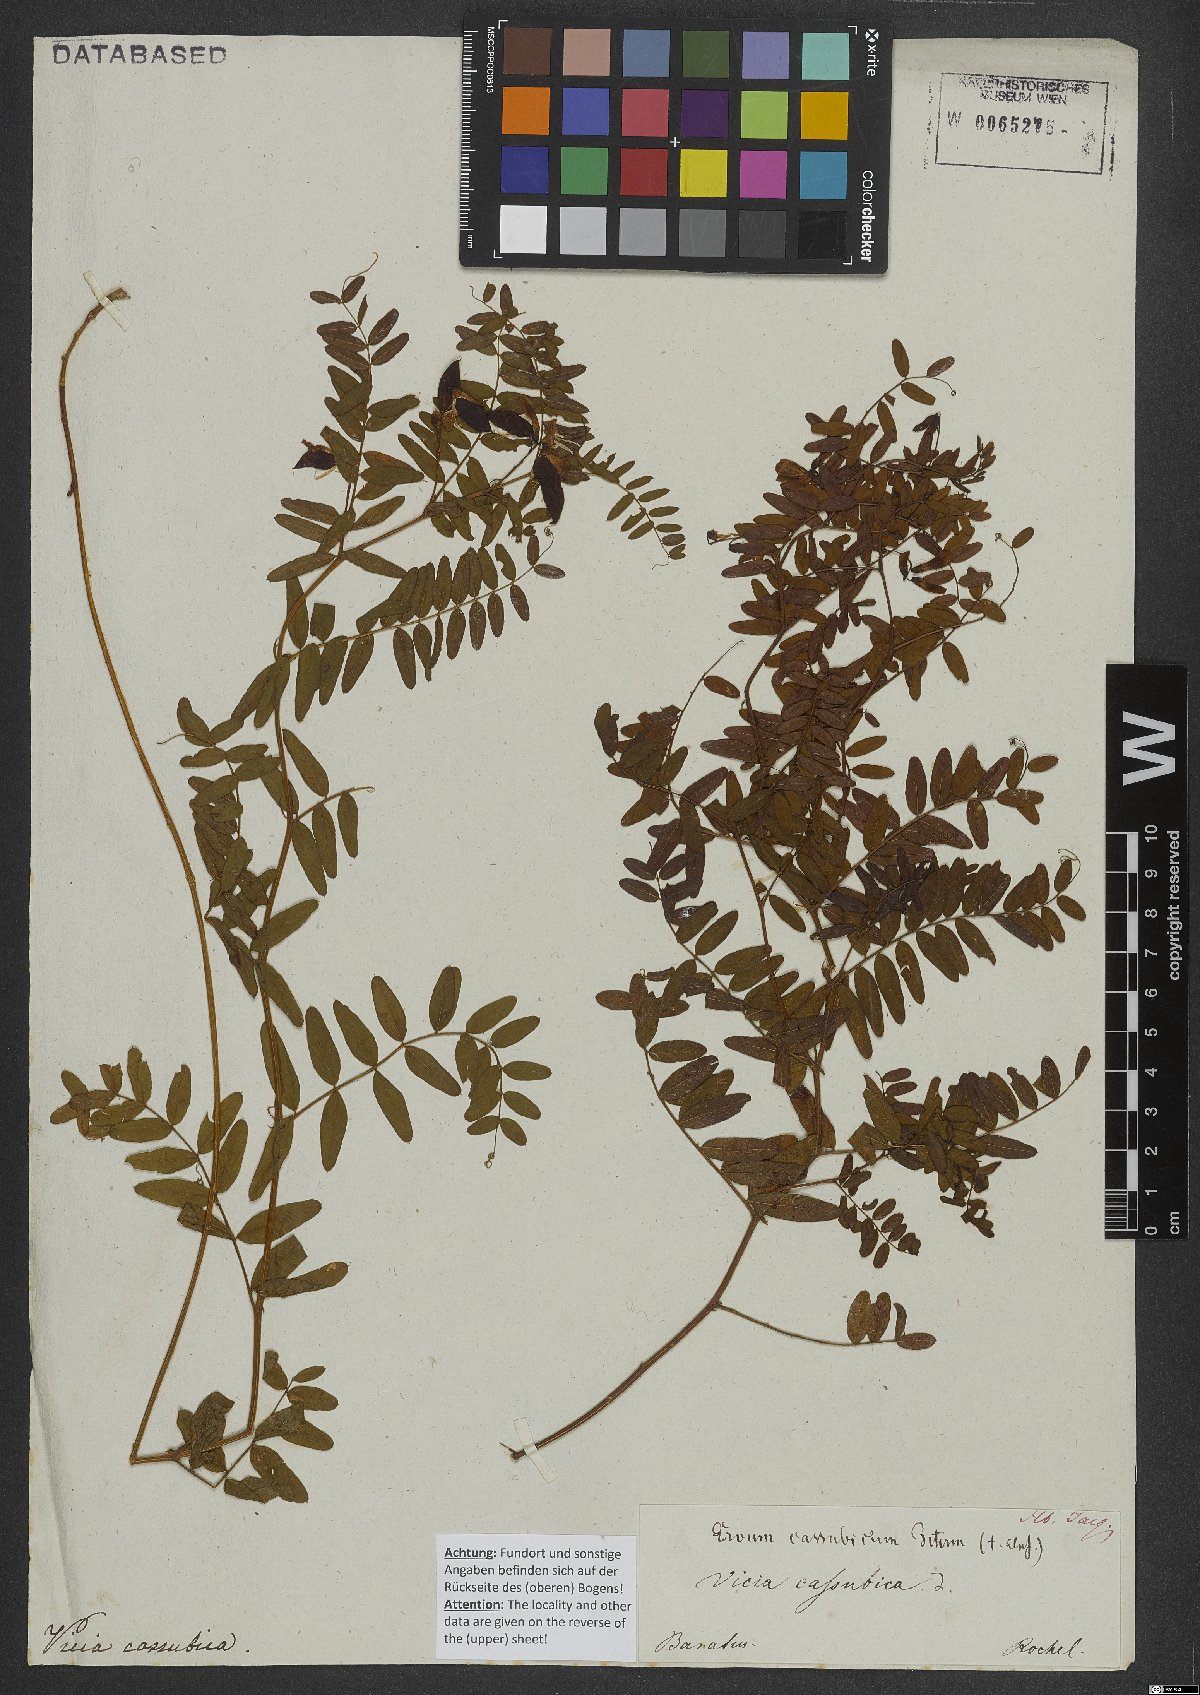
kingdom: Plantae
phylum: Tracheophyta
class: Magnoliopsida
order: Fabales
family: Fabaceae
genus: Vicia
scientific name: Vicia cassubica
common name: Danzig vetch
